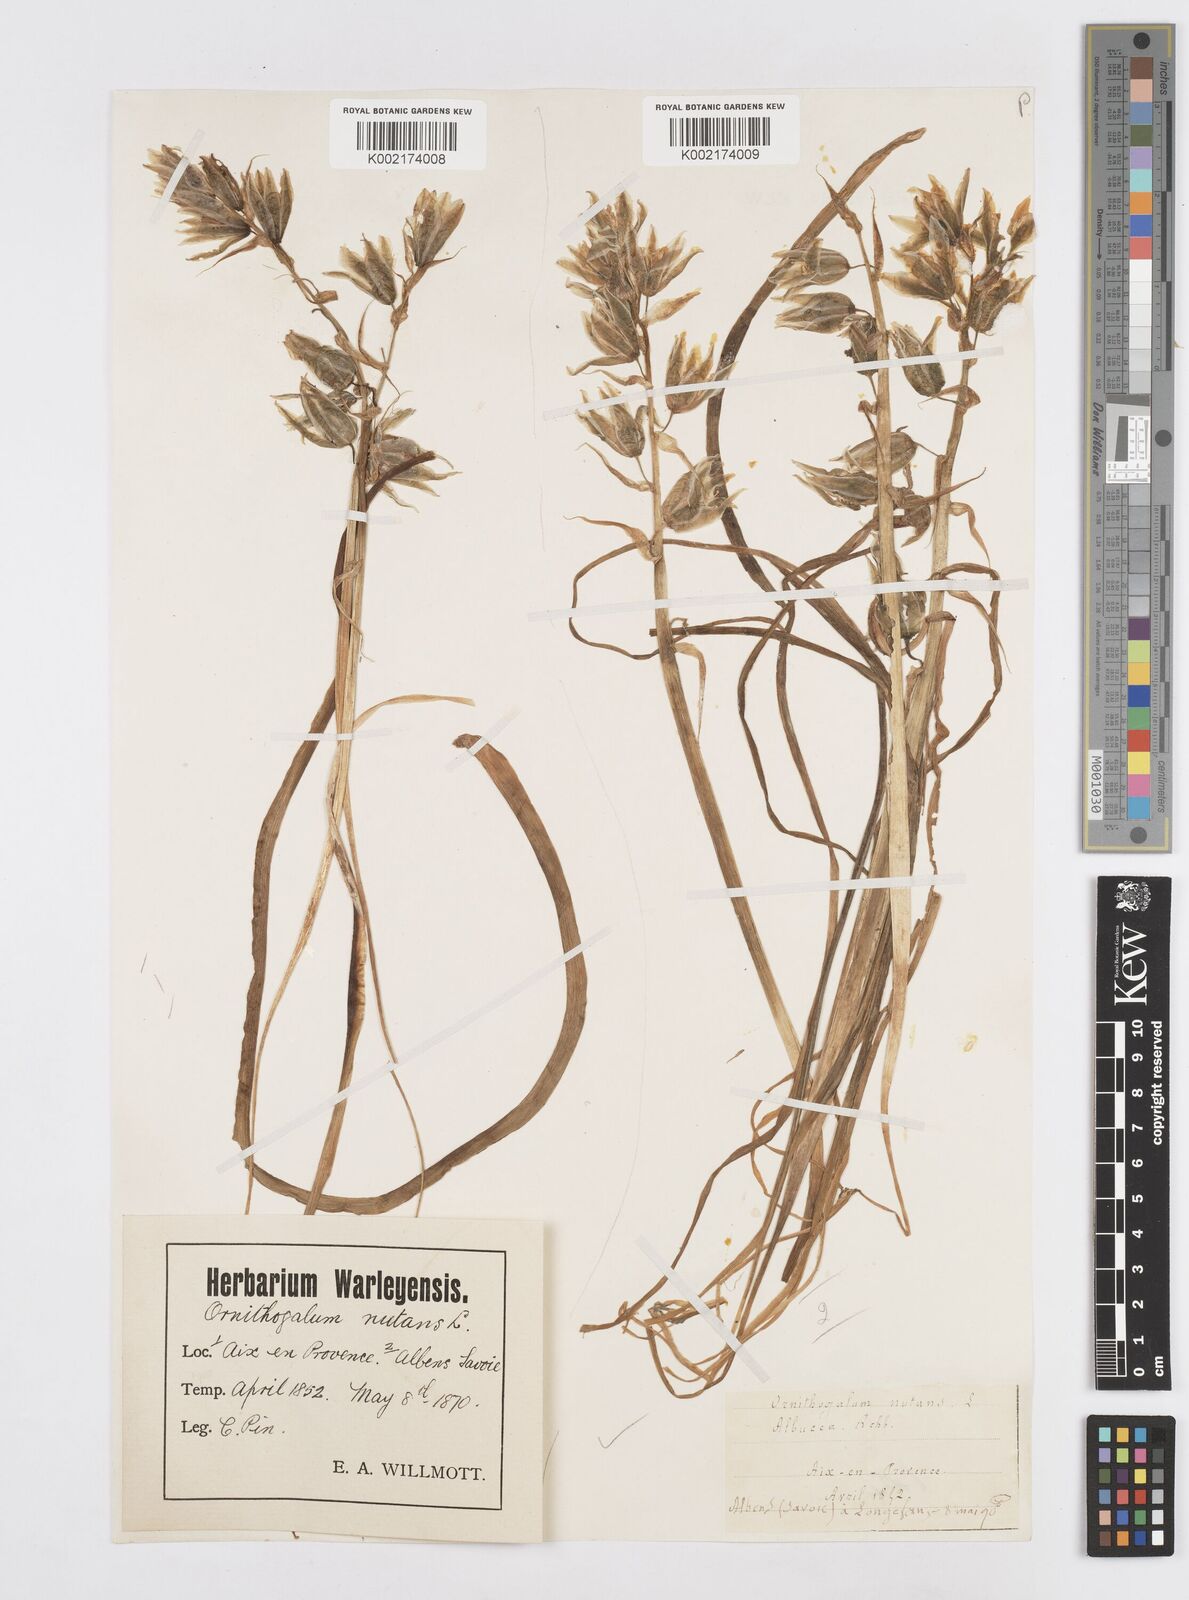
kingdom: Plantae
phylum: Tracheophyta
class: Liliopsida
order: Asparagales
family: Asparagaceae
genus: Ornithogalum
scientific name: Ornithogalum nutans
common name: Drooping star-of-bethlehem
